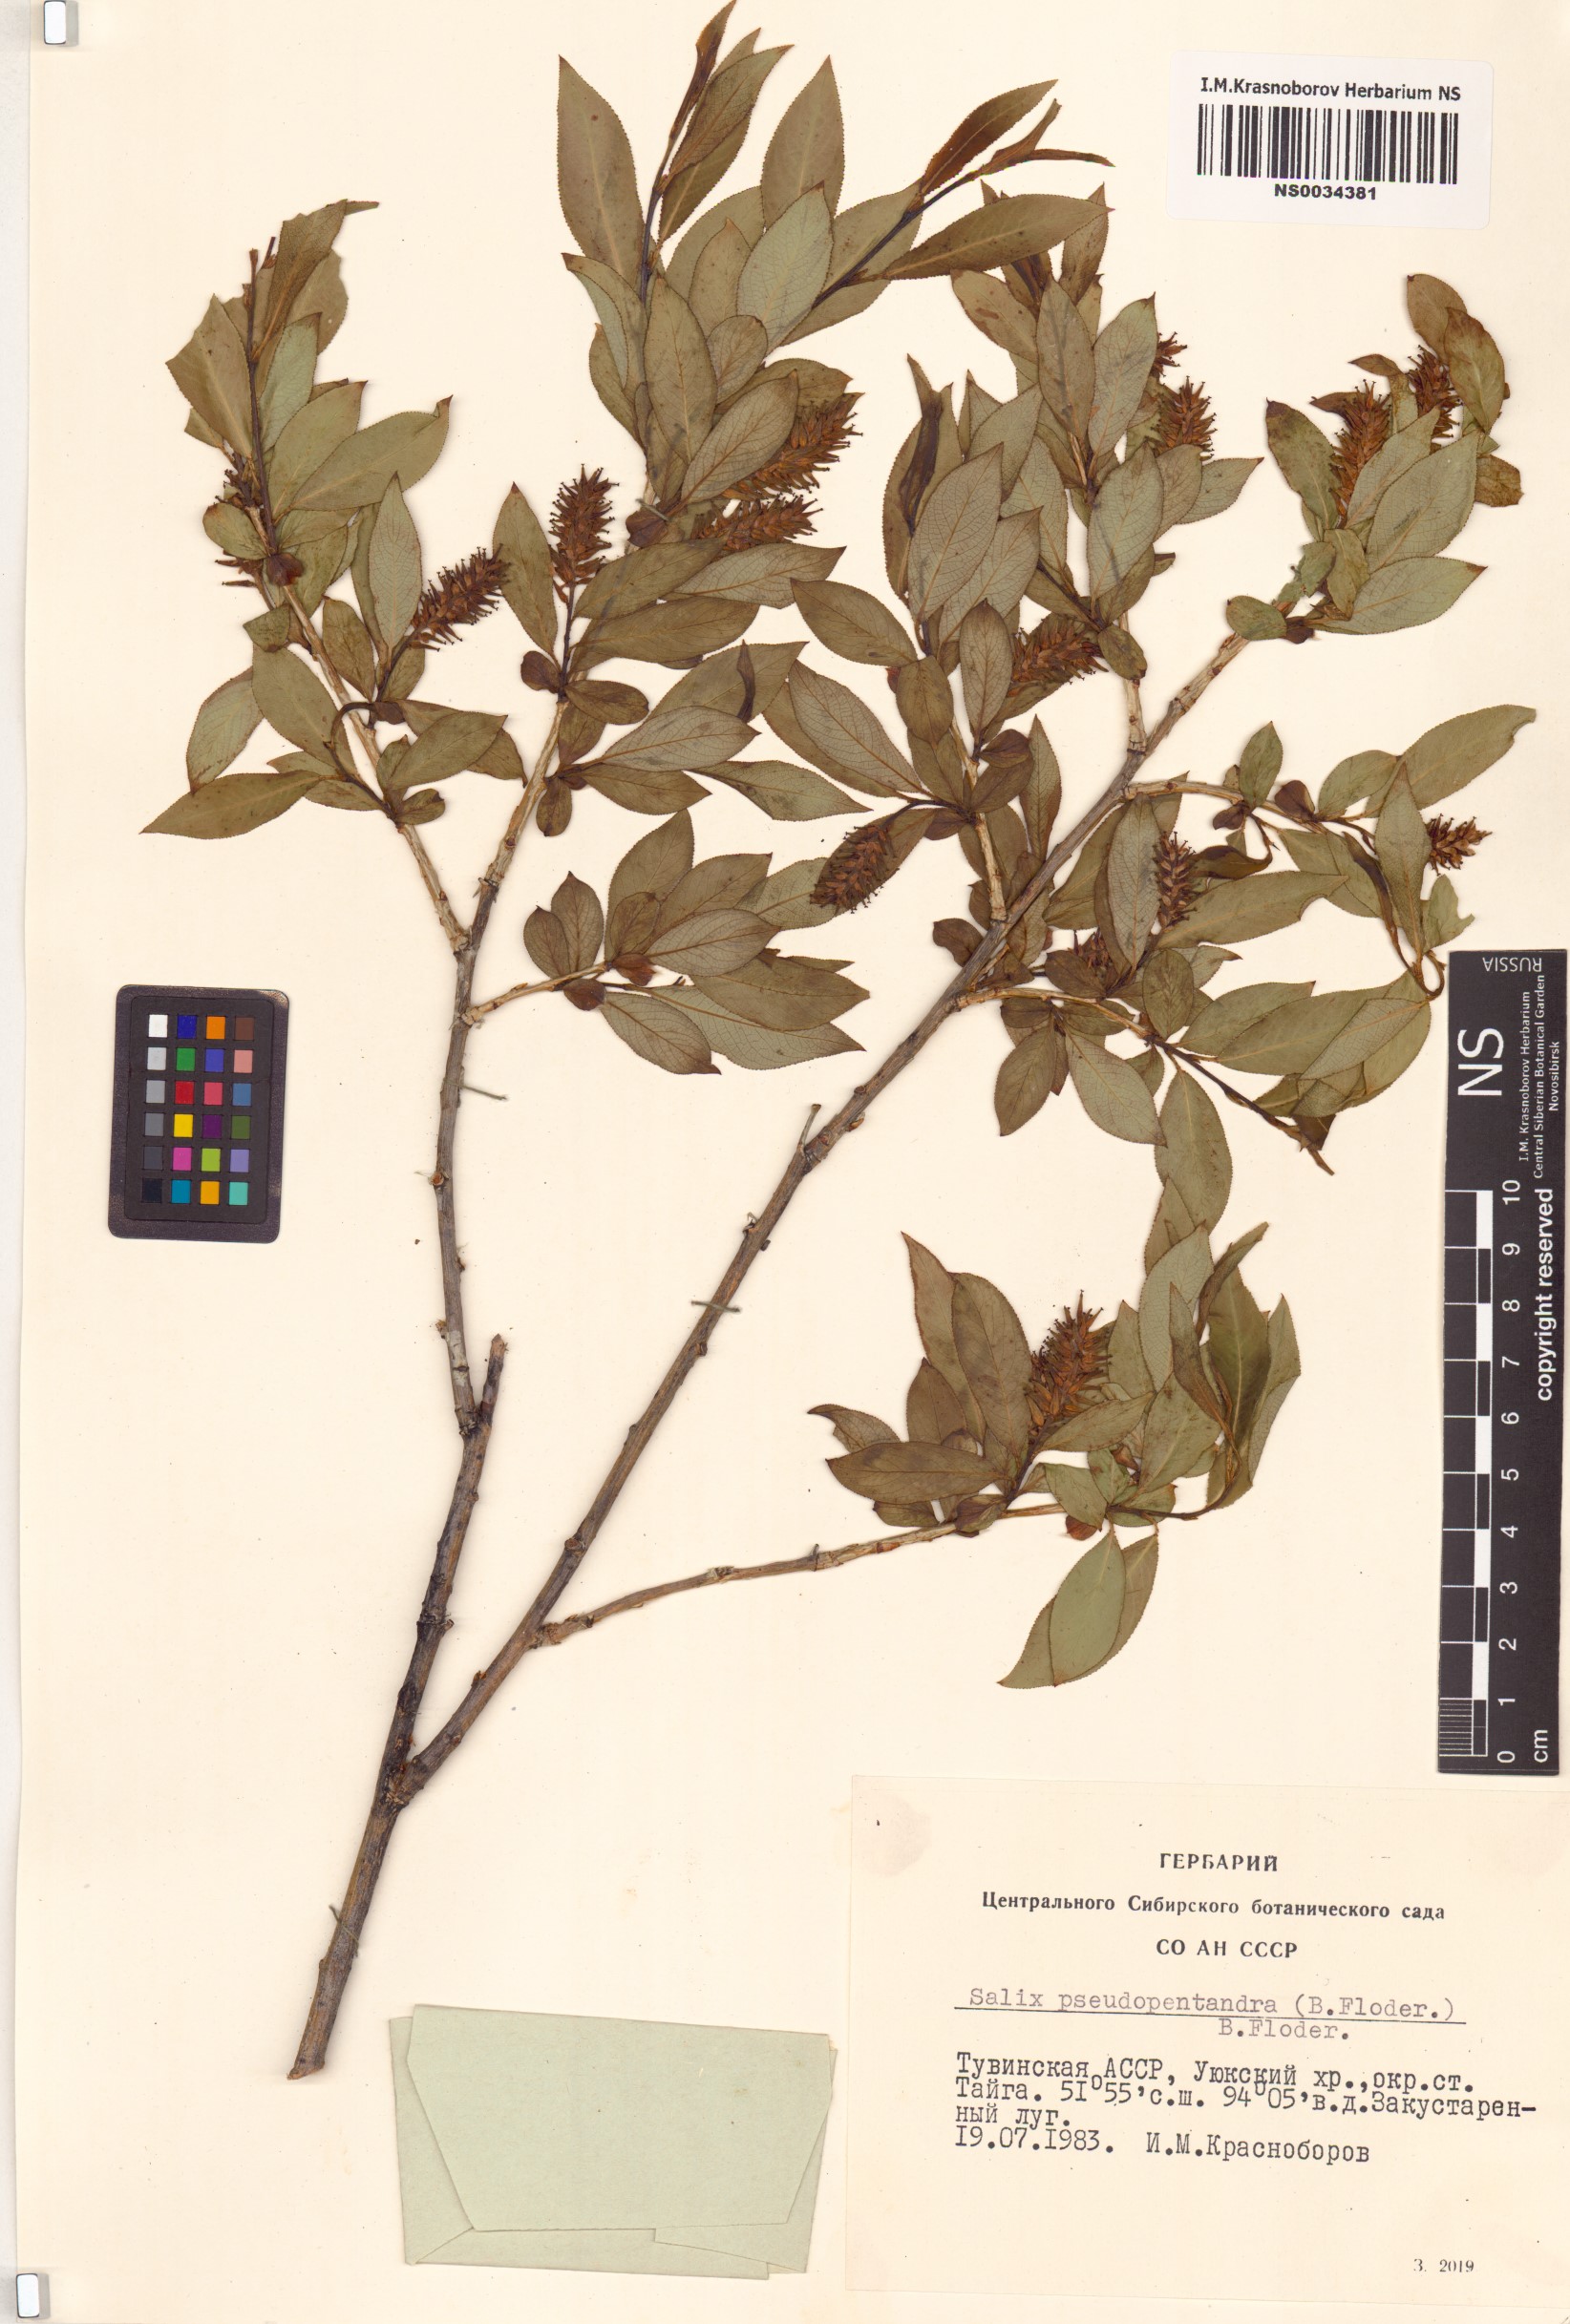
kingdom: Plantae
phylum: Tracheophyta
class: Magnoliopsida
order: Malpighiales
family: Salicaceae
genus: Salix
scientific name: Salix pseudopentandra
